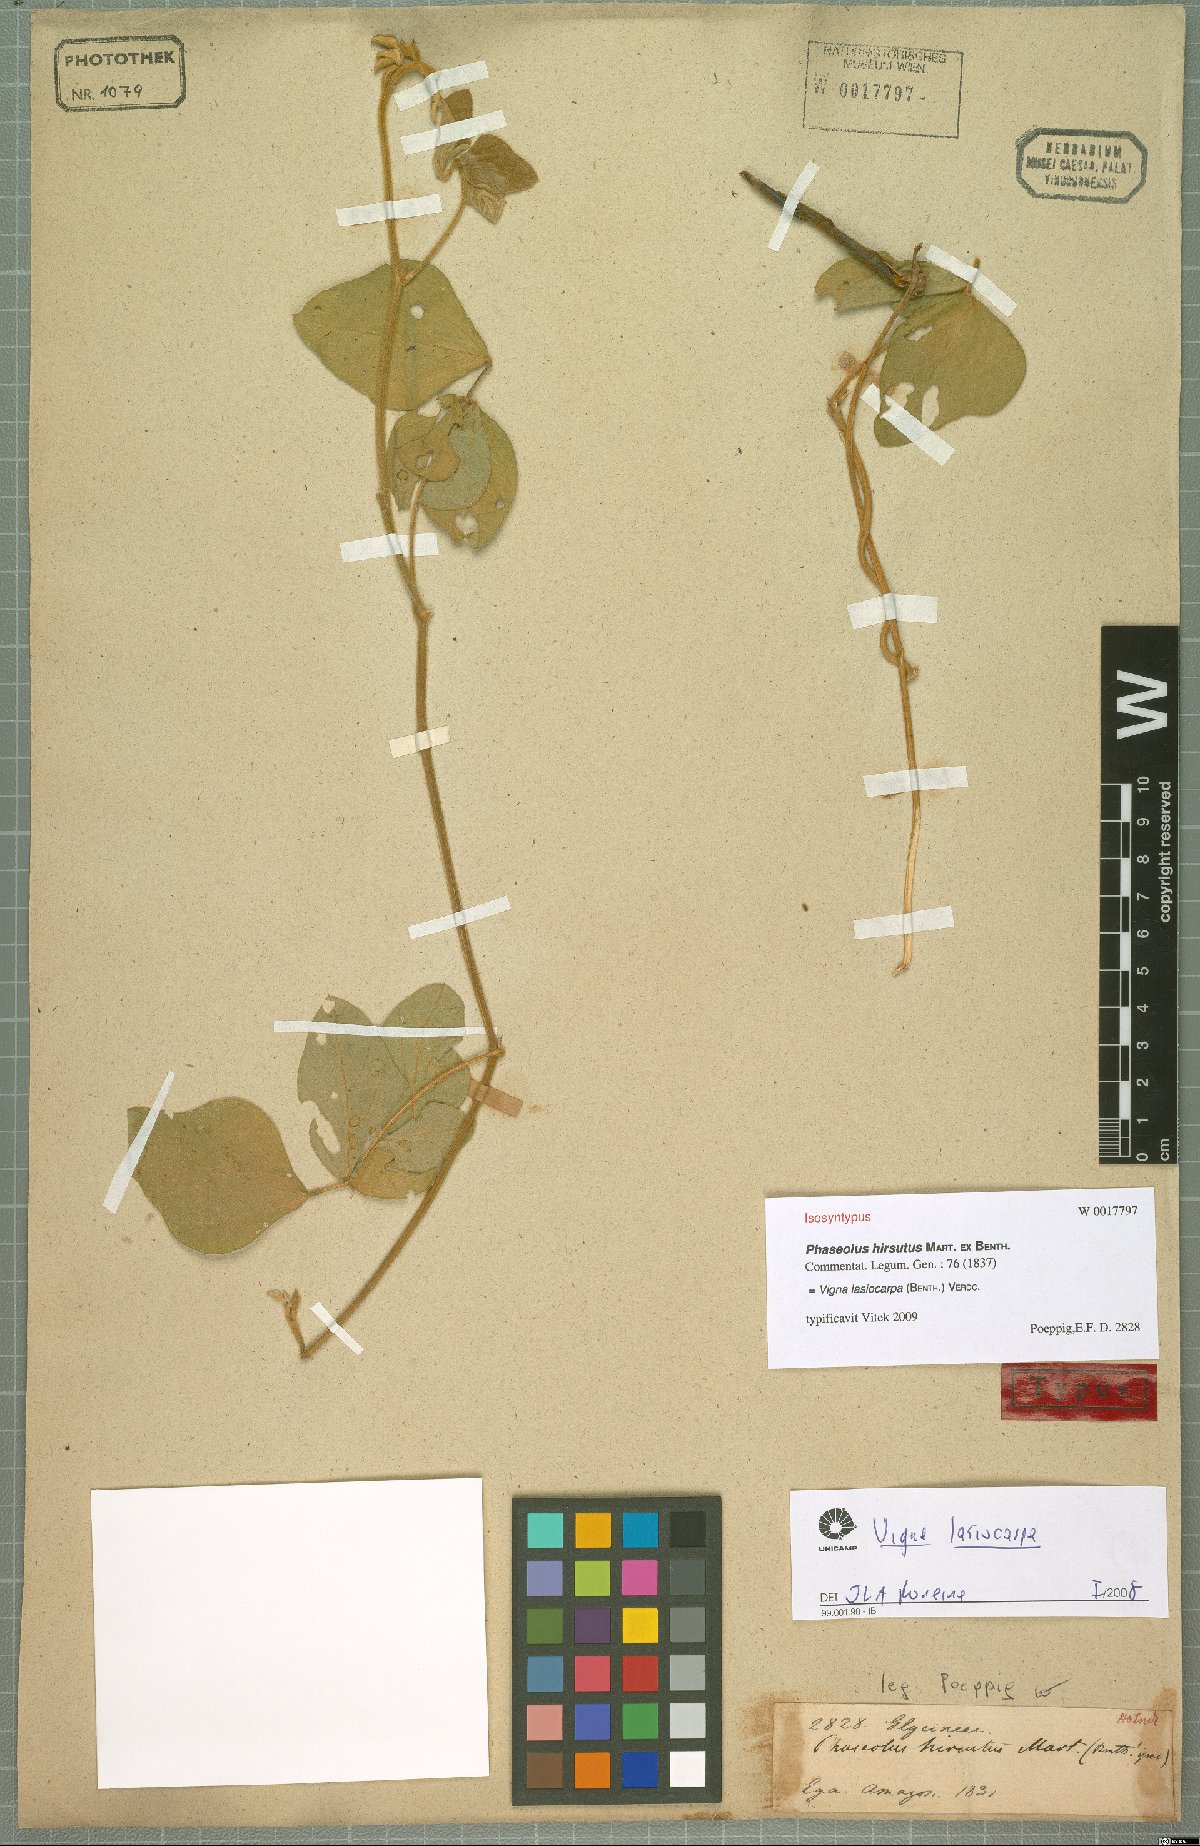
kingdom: Plantae
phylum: Tracheophyta
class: Magnoliopsida
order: Fabales
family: Fabaceae
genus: Vigna
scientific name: Vigna lasiocarpa
